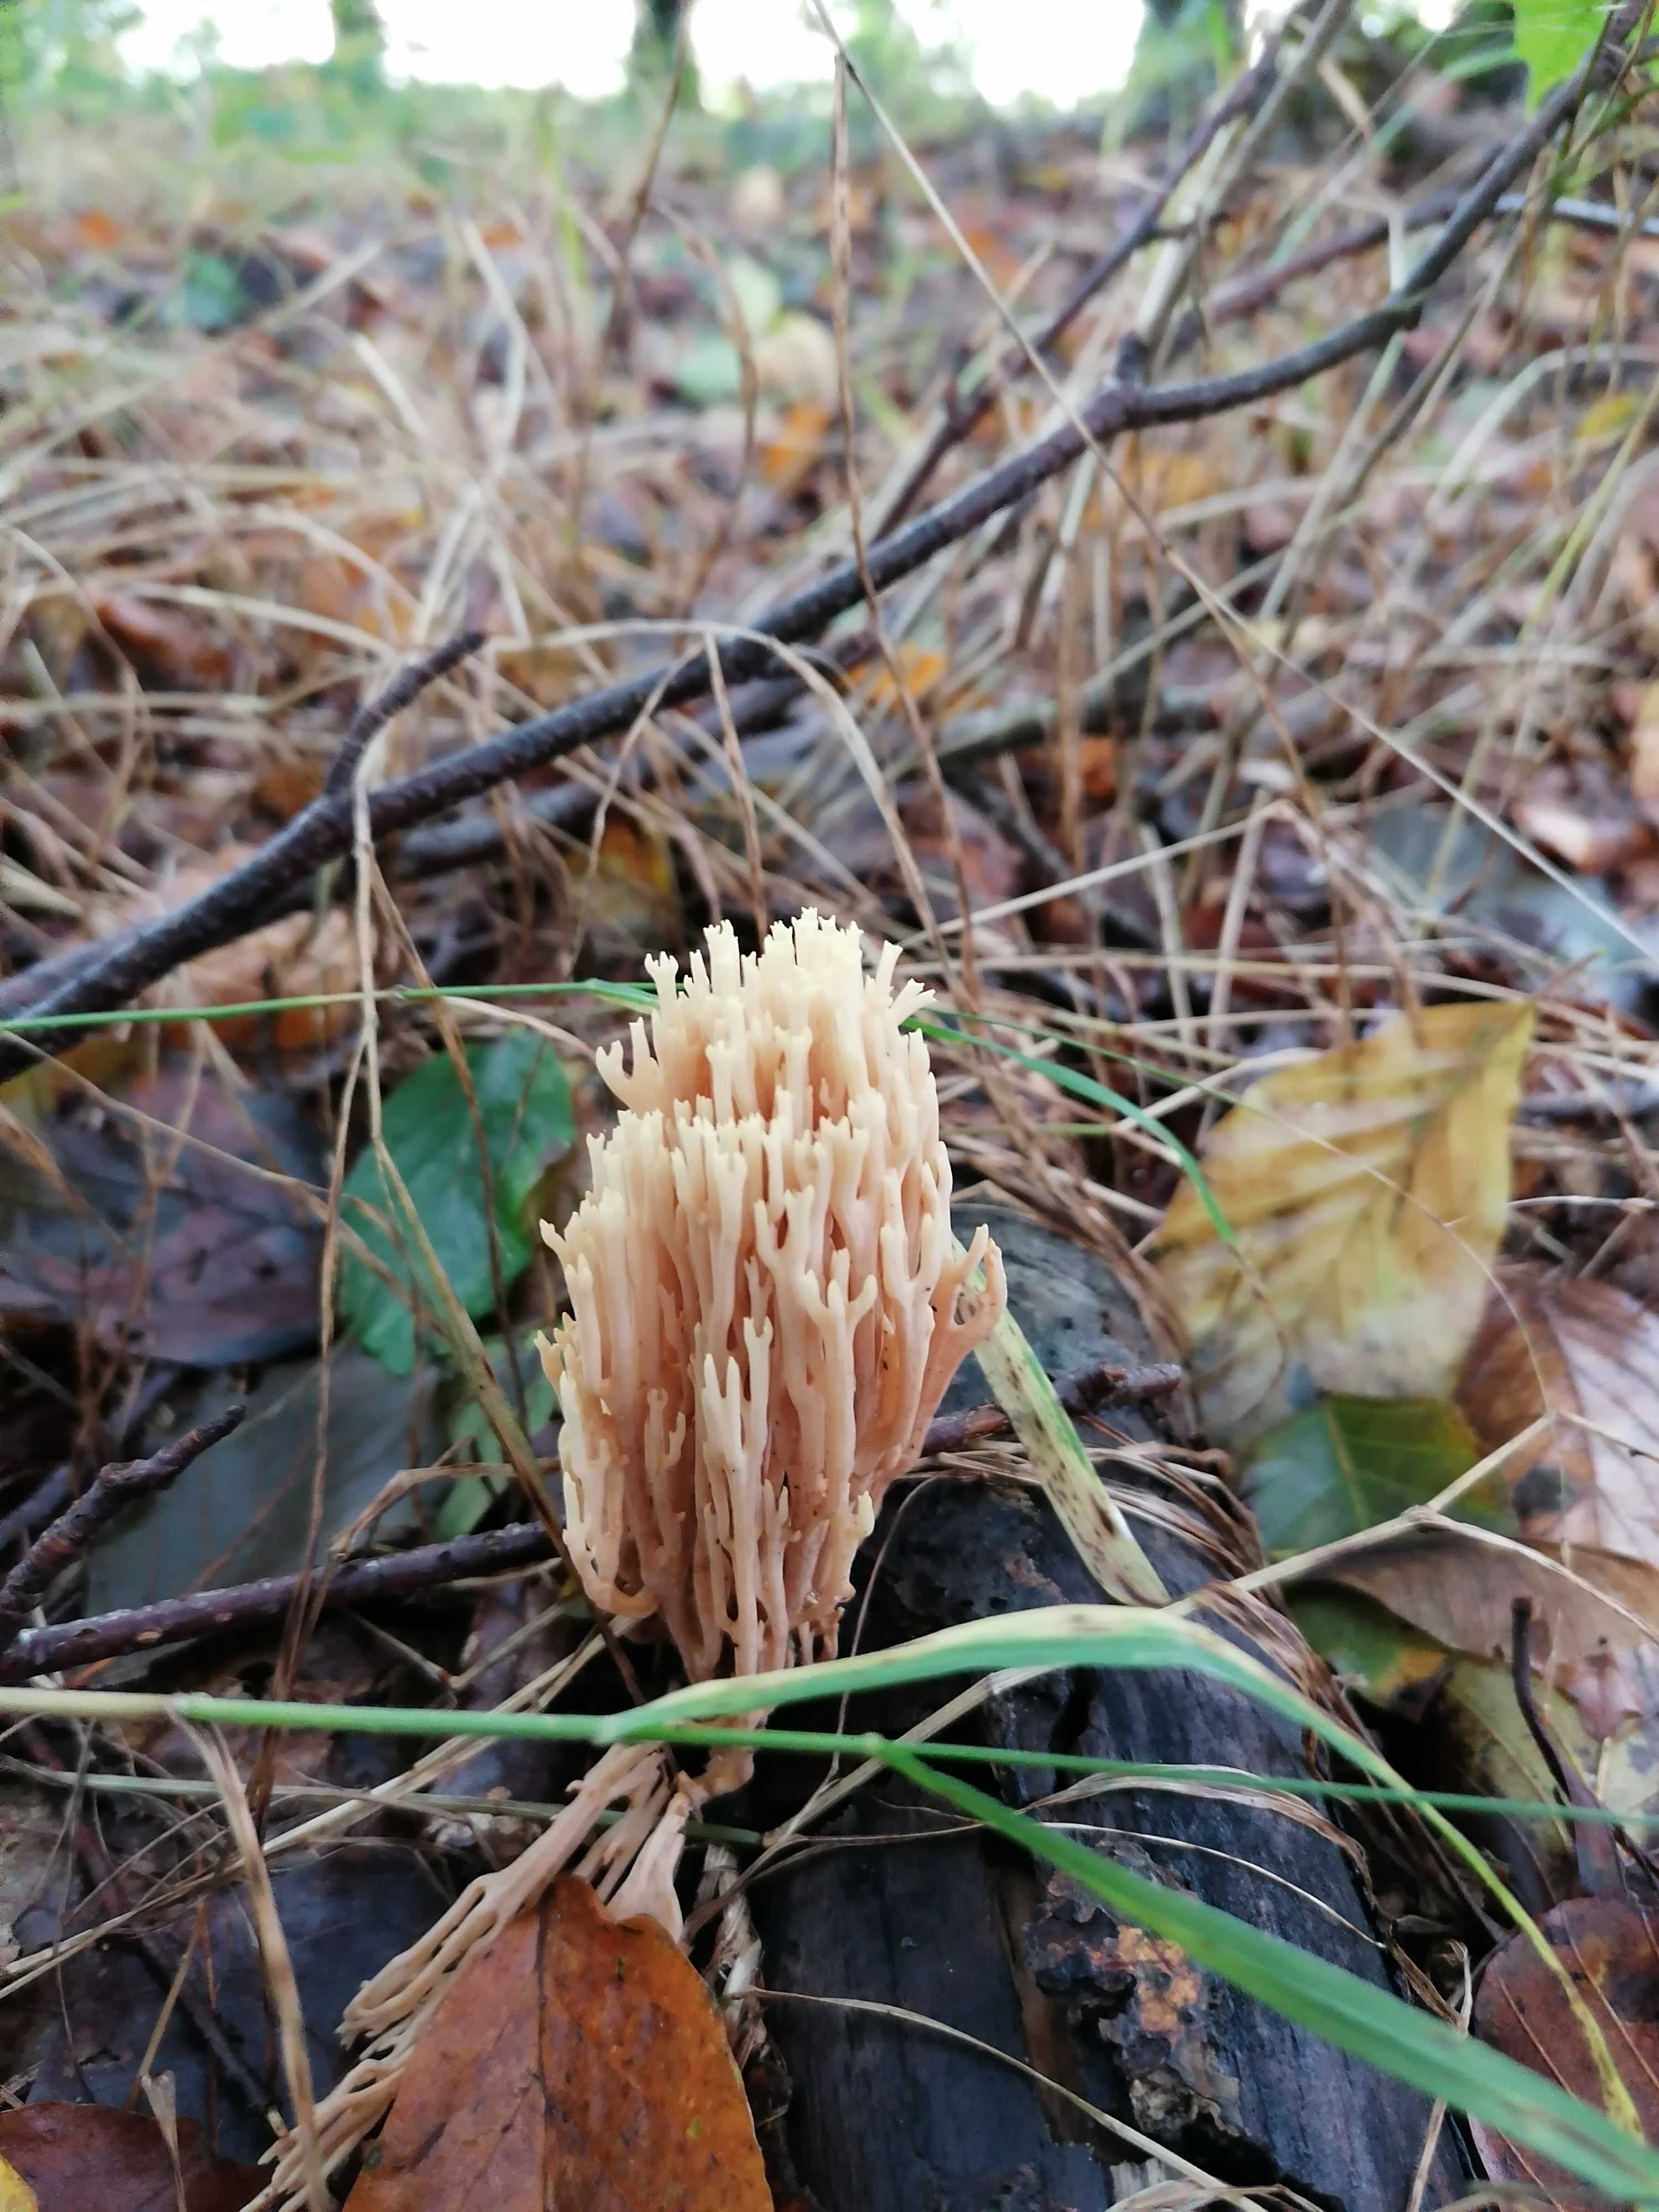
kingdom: Fungi
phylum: Basidiomycota
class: Agaricomycetes
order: Gomphales
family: Gomphaceae
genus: Ramaria
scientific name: Ramaria stricta
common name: rank koralsvamp
